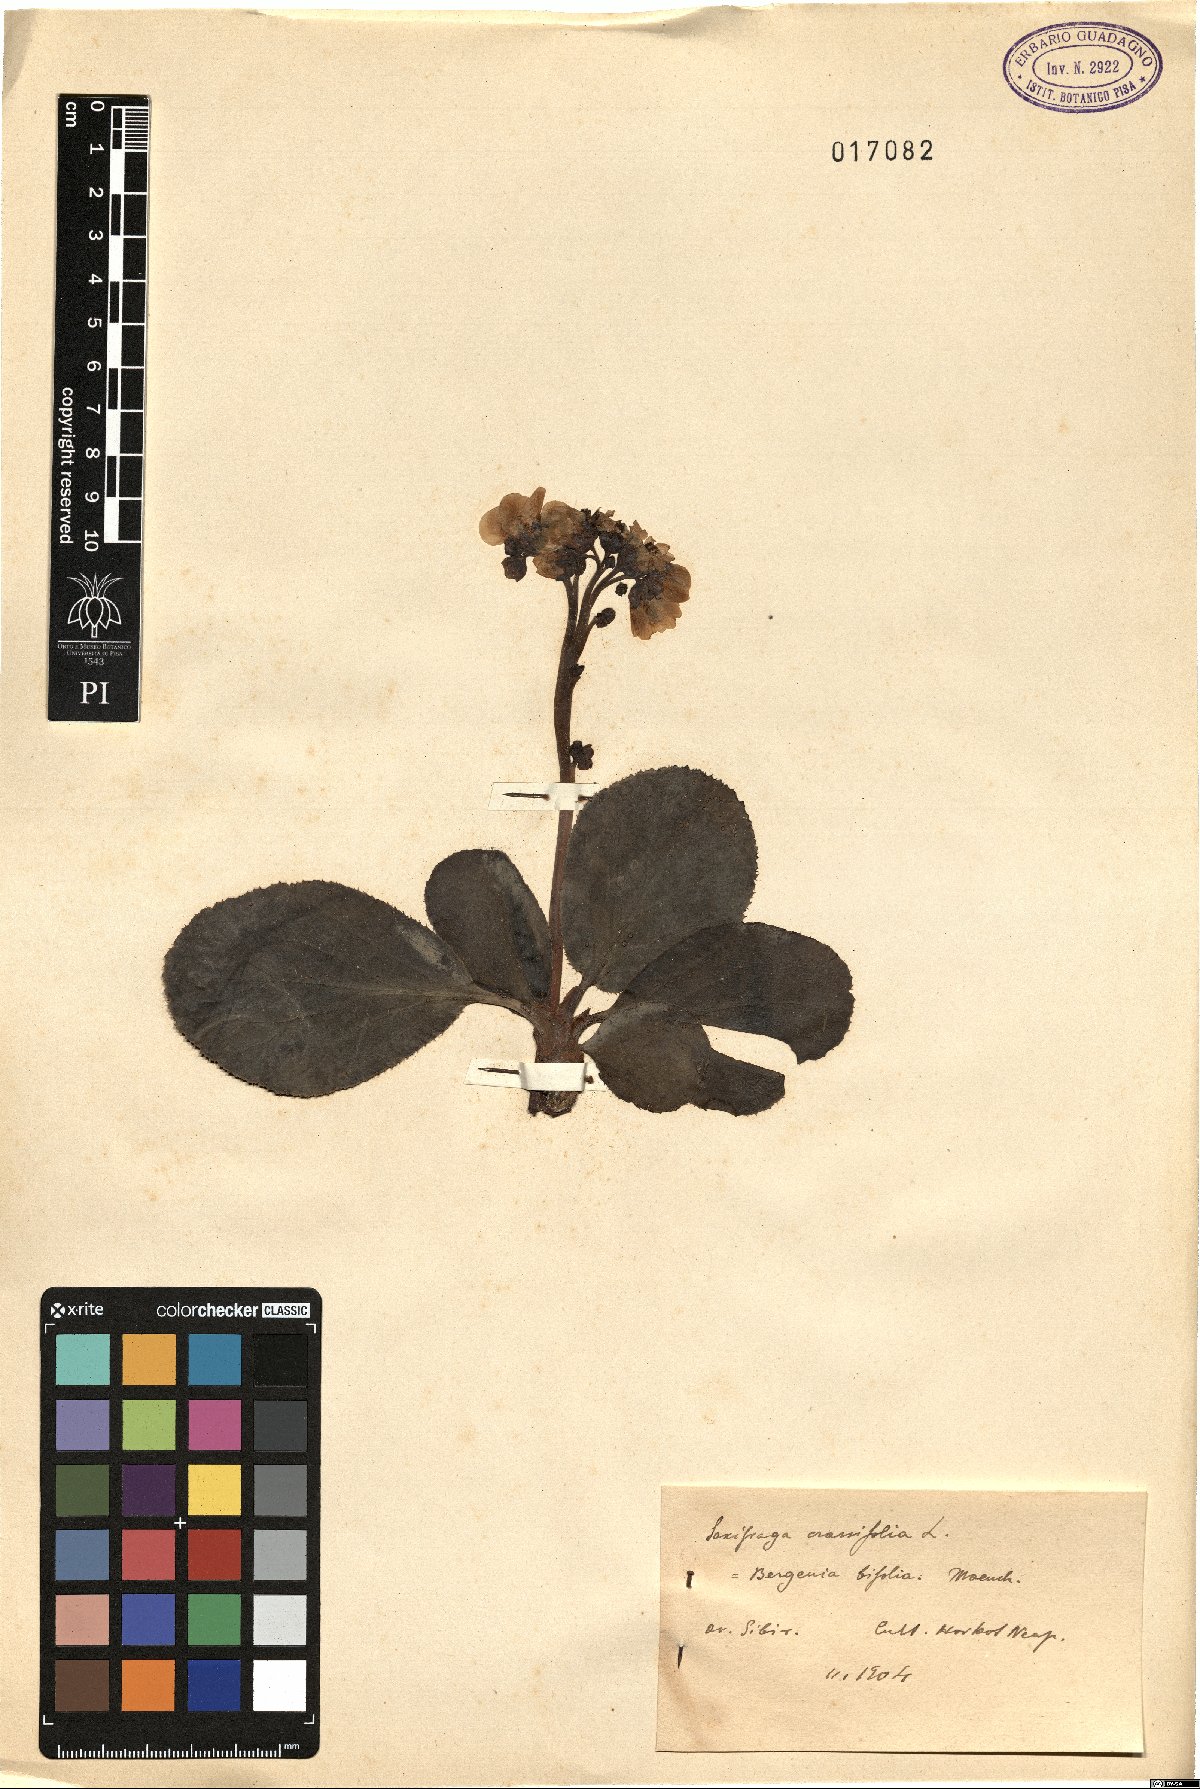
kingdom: Plantae
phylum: Tracheophyta
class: Magnoliopsida
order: Saxifragales
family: Saxifragaceae
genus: Bergenia
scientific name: Bergenia crassifolia
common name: Elephant-ears
